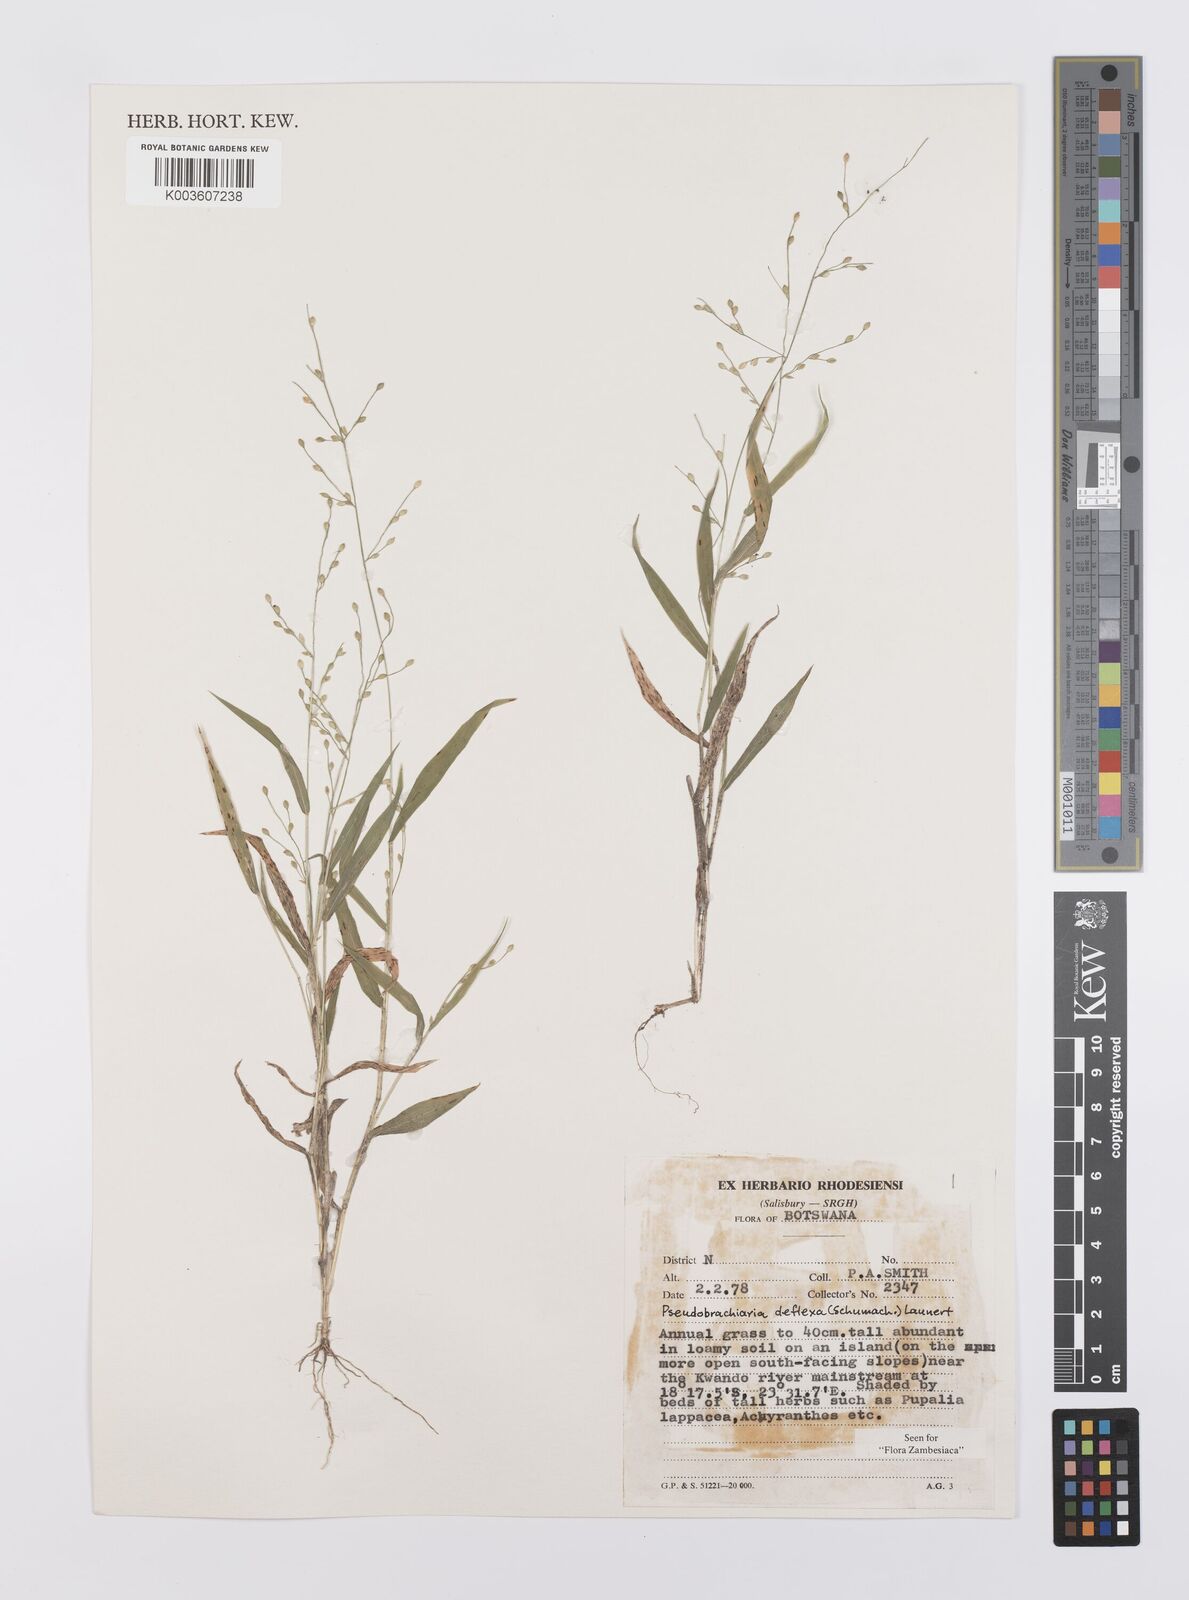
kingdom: Plantae
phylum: Tracheophyta
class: Liliopsida
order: Poales
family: Poaceae
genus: Urochloa
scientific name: Urochloa deflexa
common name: Guinea millet
